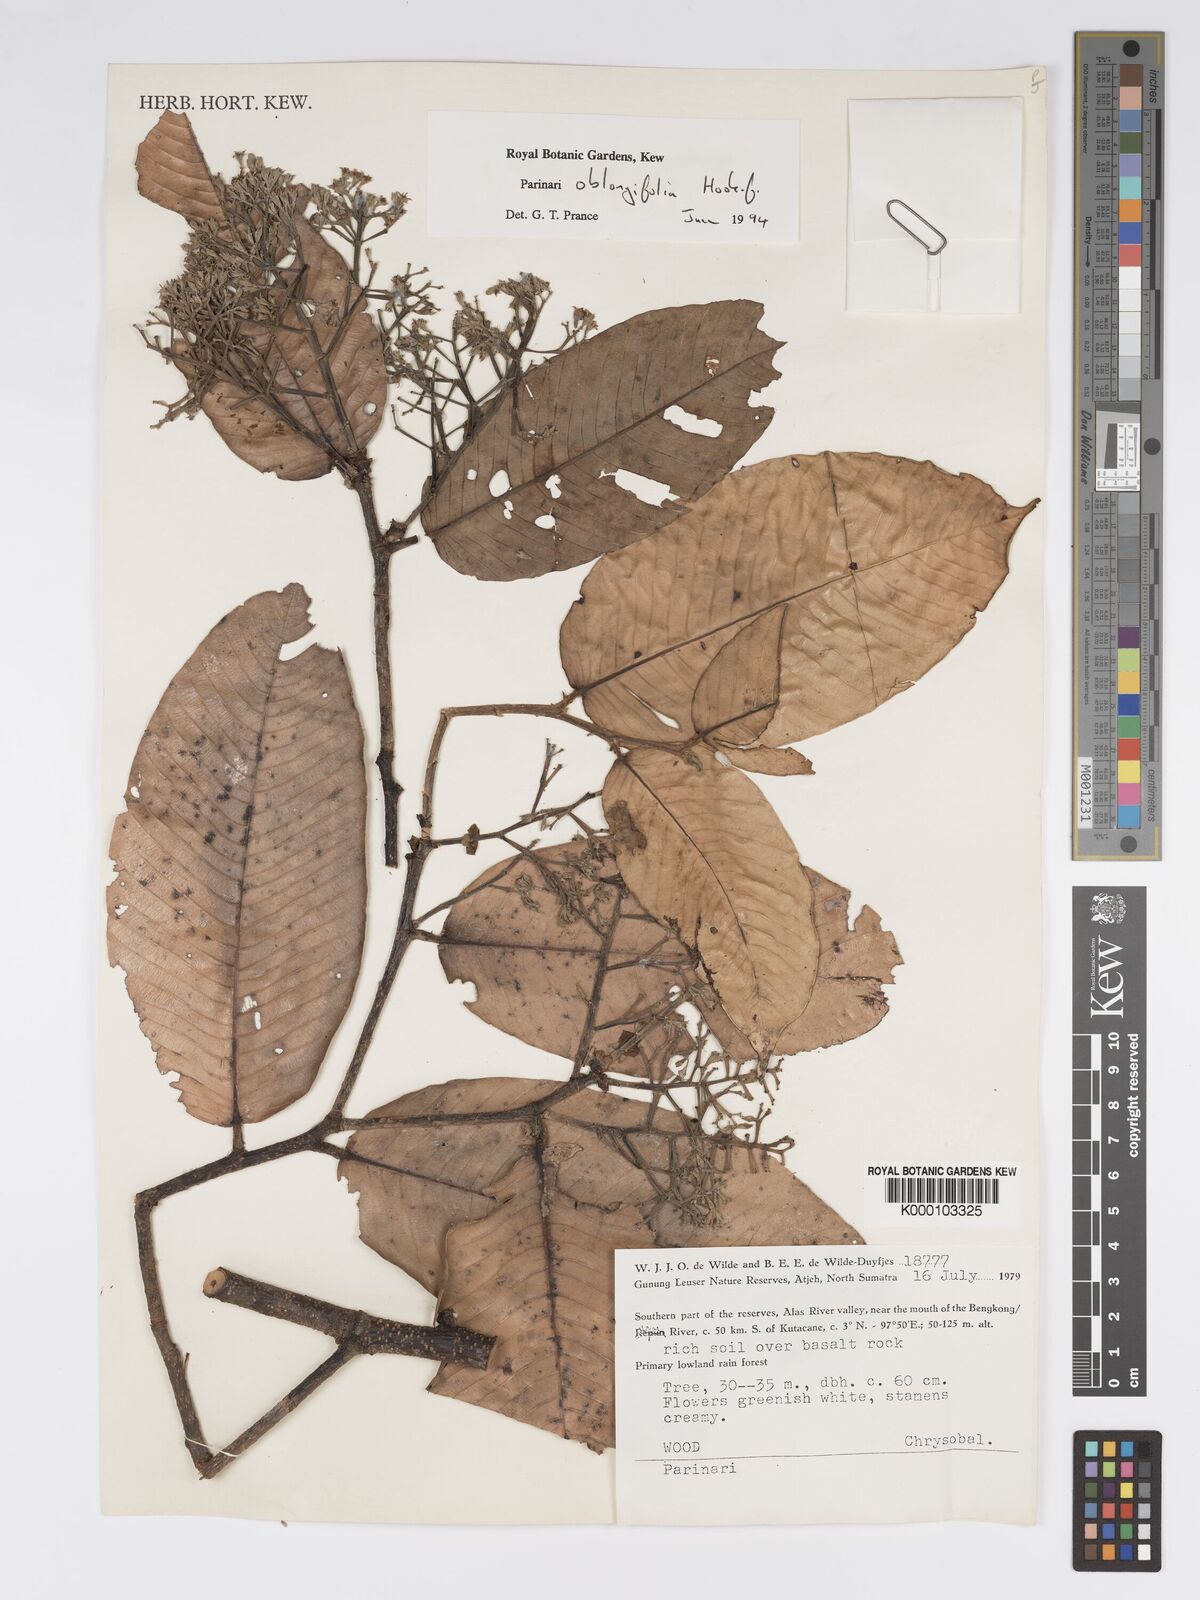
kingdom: Plantae
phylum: Tracheophyta
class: Magnoliopsida
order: Malpighiales
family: Chrysobalanaceae
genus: Parinari
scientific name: Parinari oblongifolia
